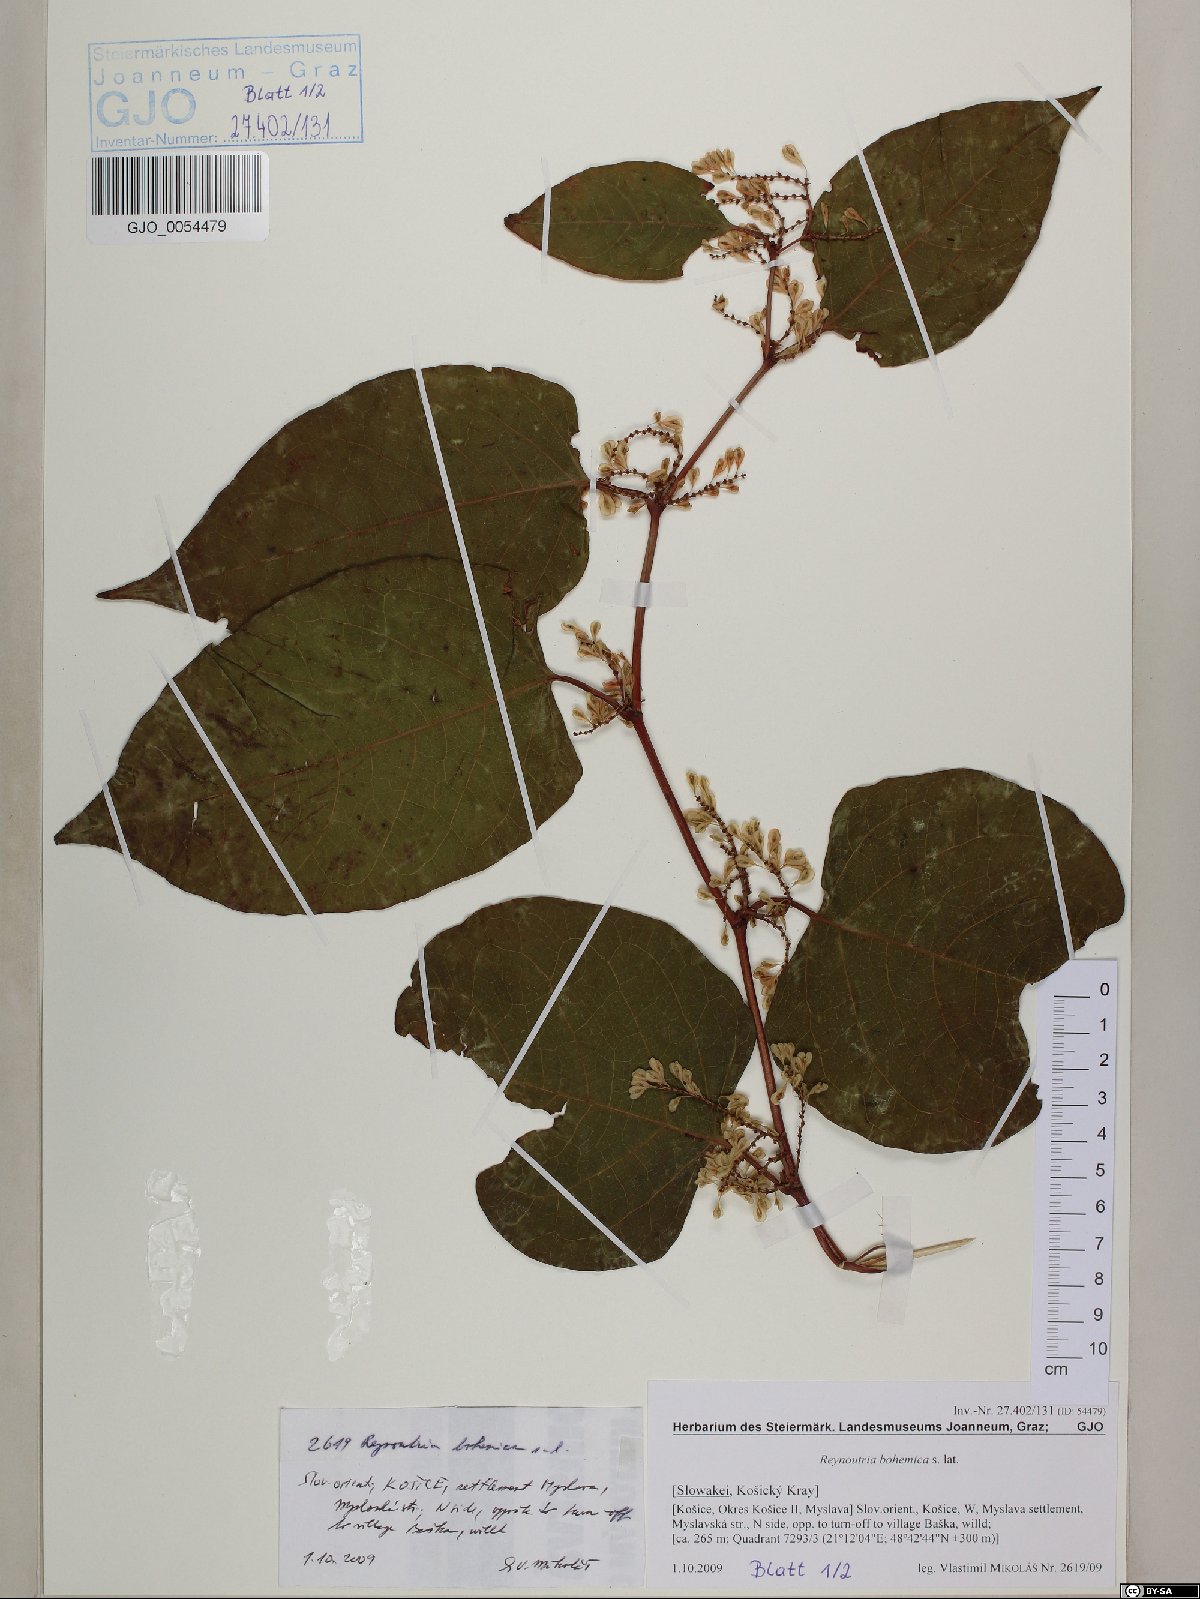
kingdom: Plantae
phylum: Tracheophyta
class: Magnoliopsida
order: Caryophyllales
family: Polygonaceae
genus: Reynoutria
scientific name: Reynoutria bohemica
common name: Bohemian knotweed
